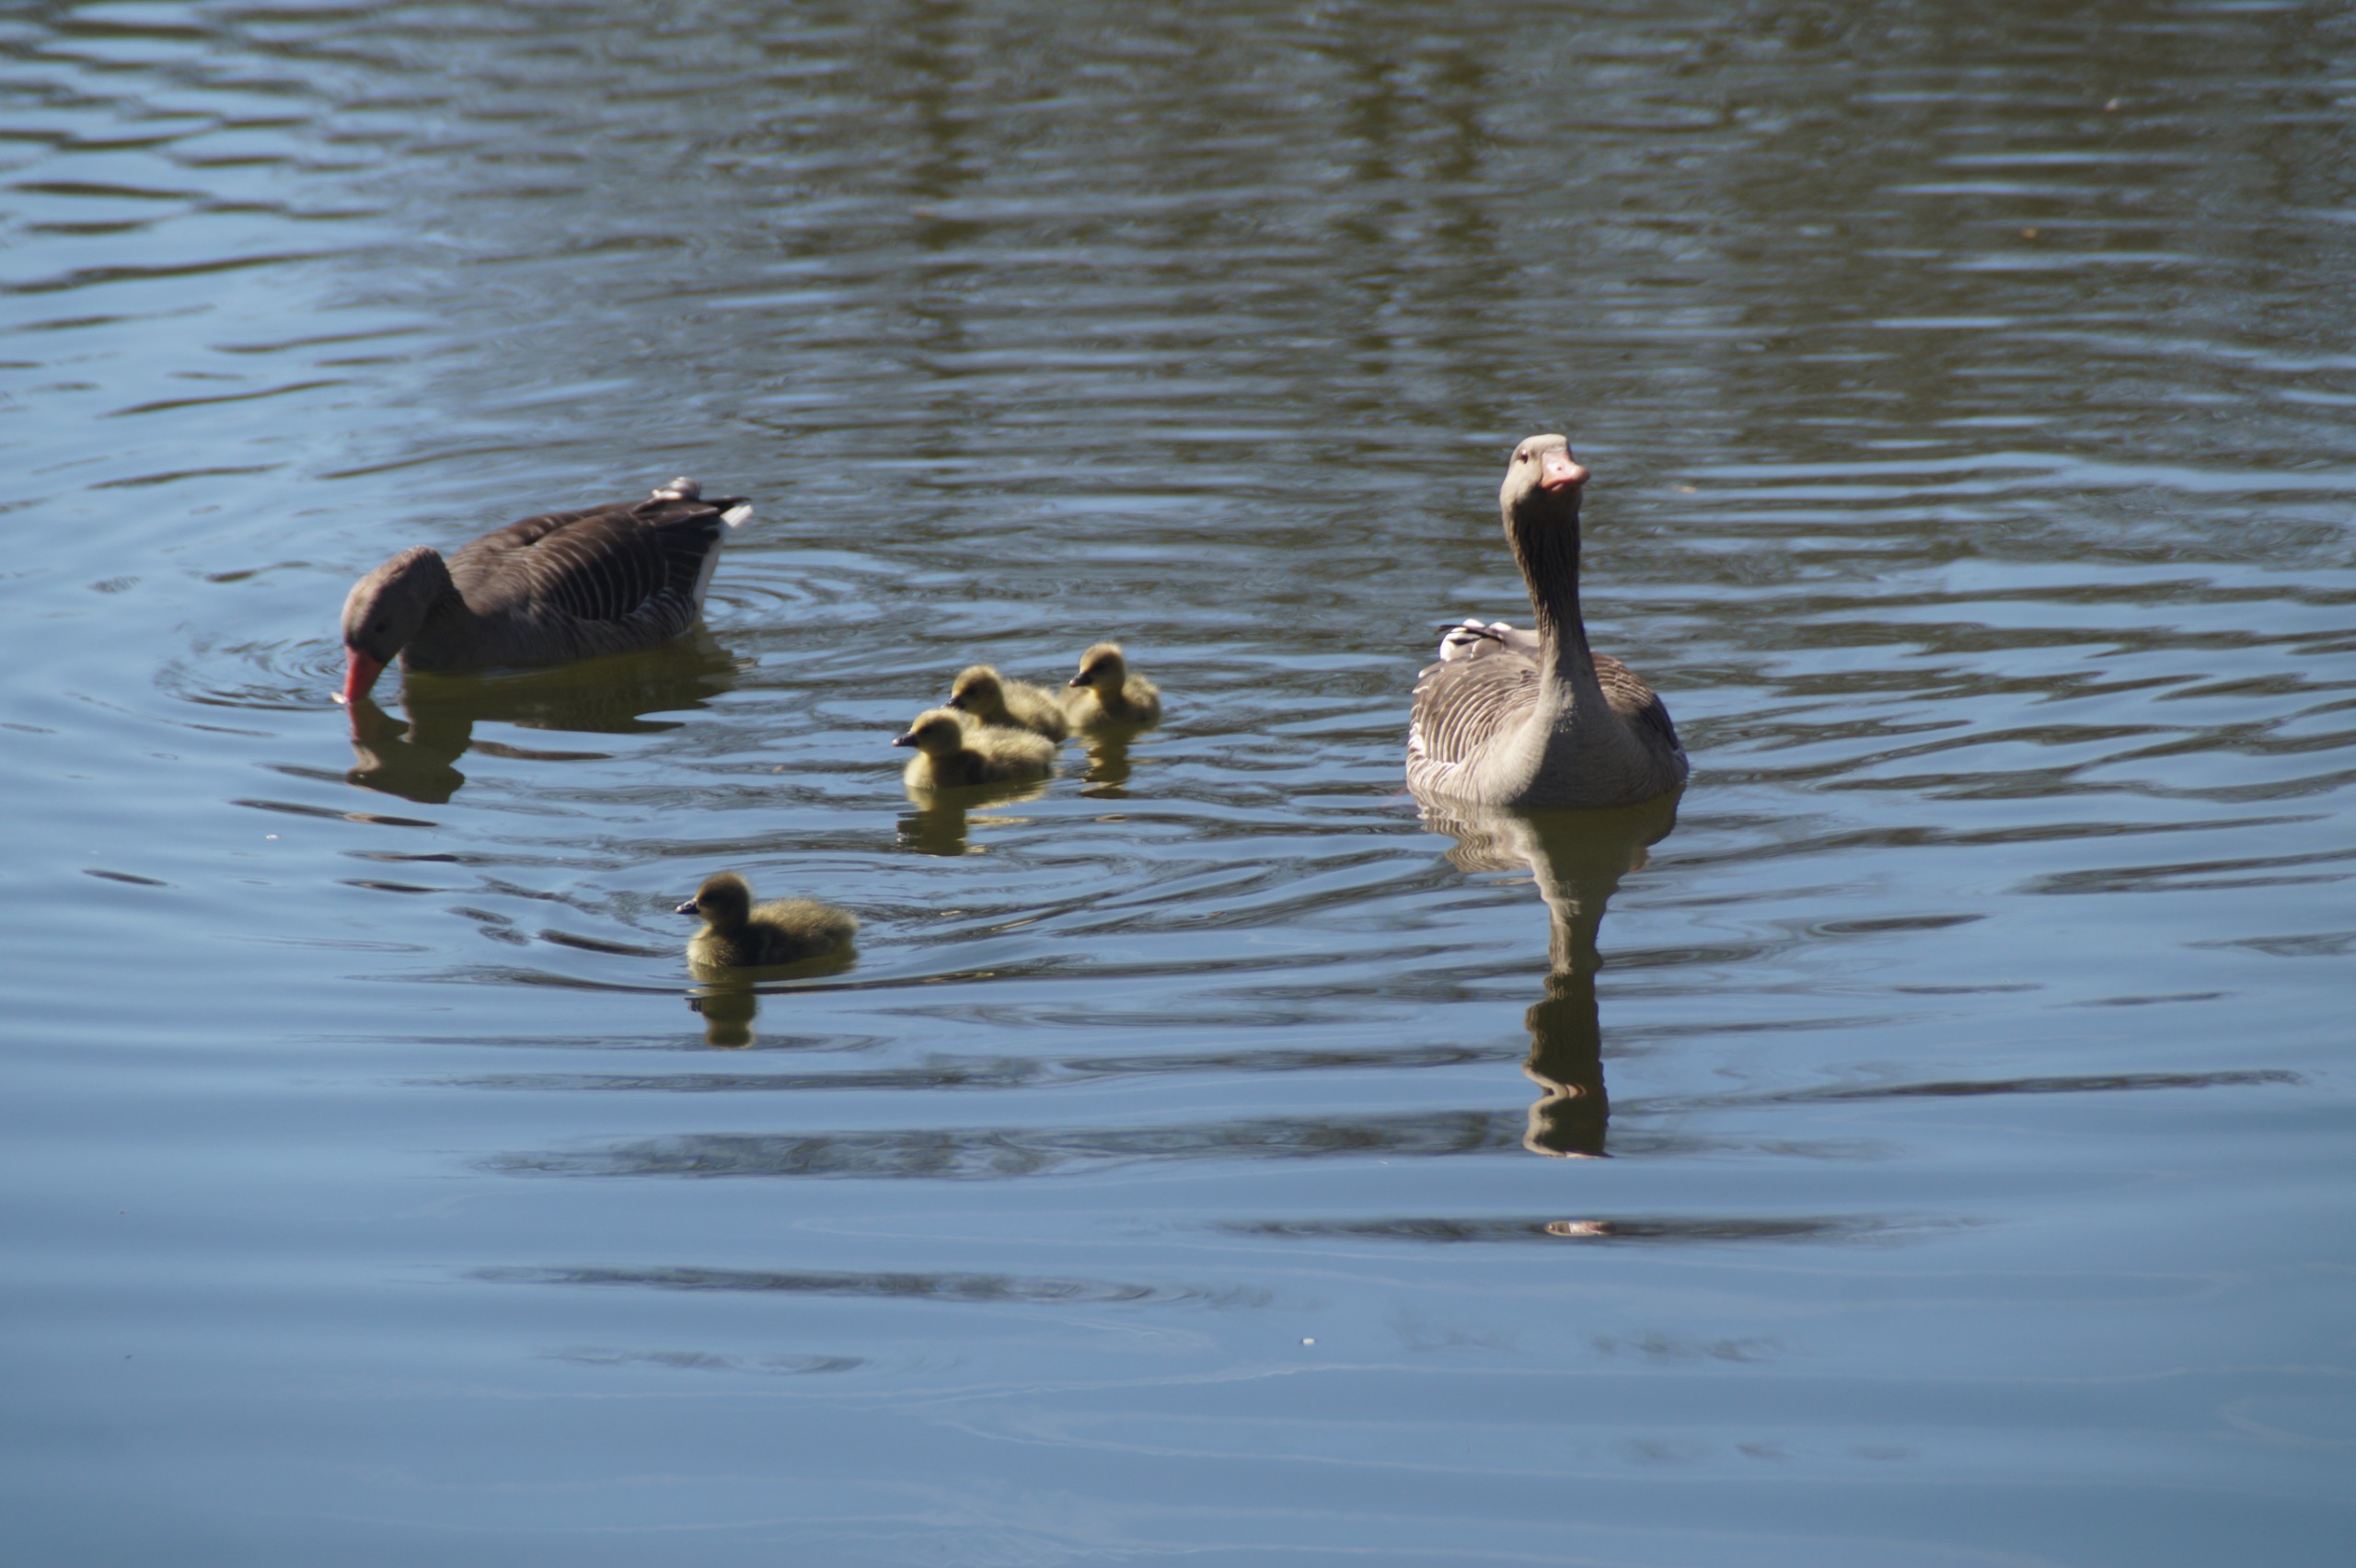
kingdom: Animalia
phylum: Chordata
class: Aves
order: Anseriformes
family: Anatidae
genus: Anser
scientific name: Anser anser
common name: Grågås
